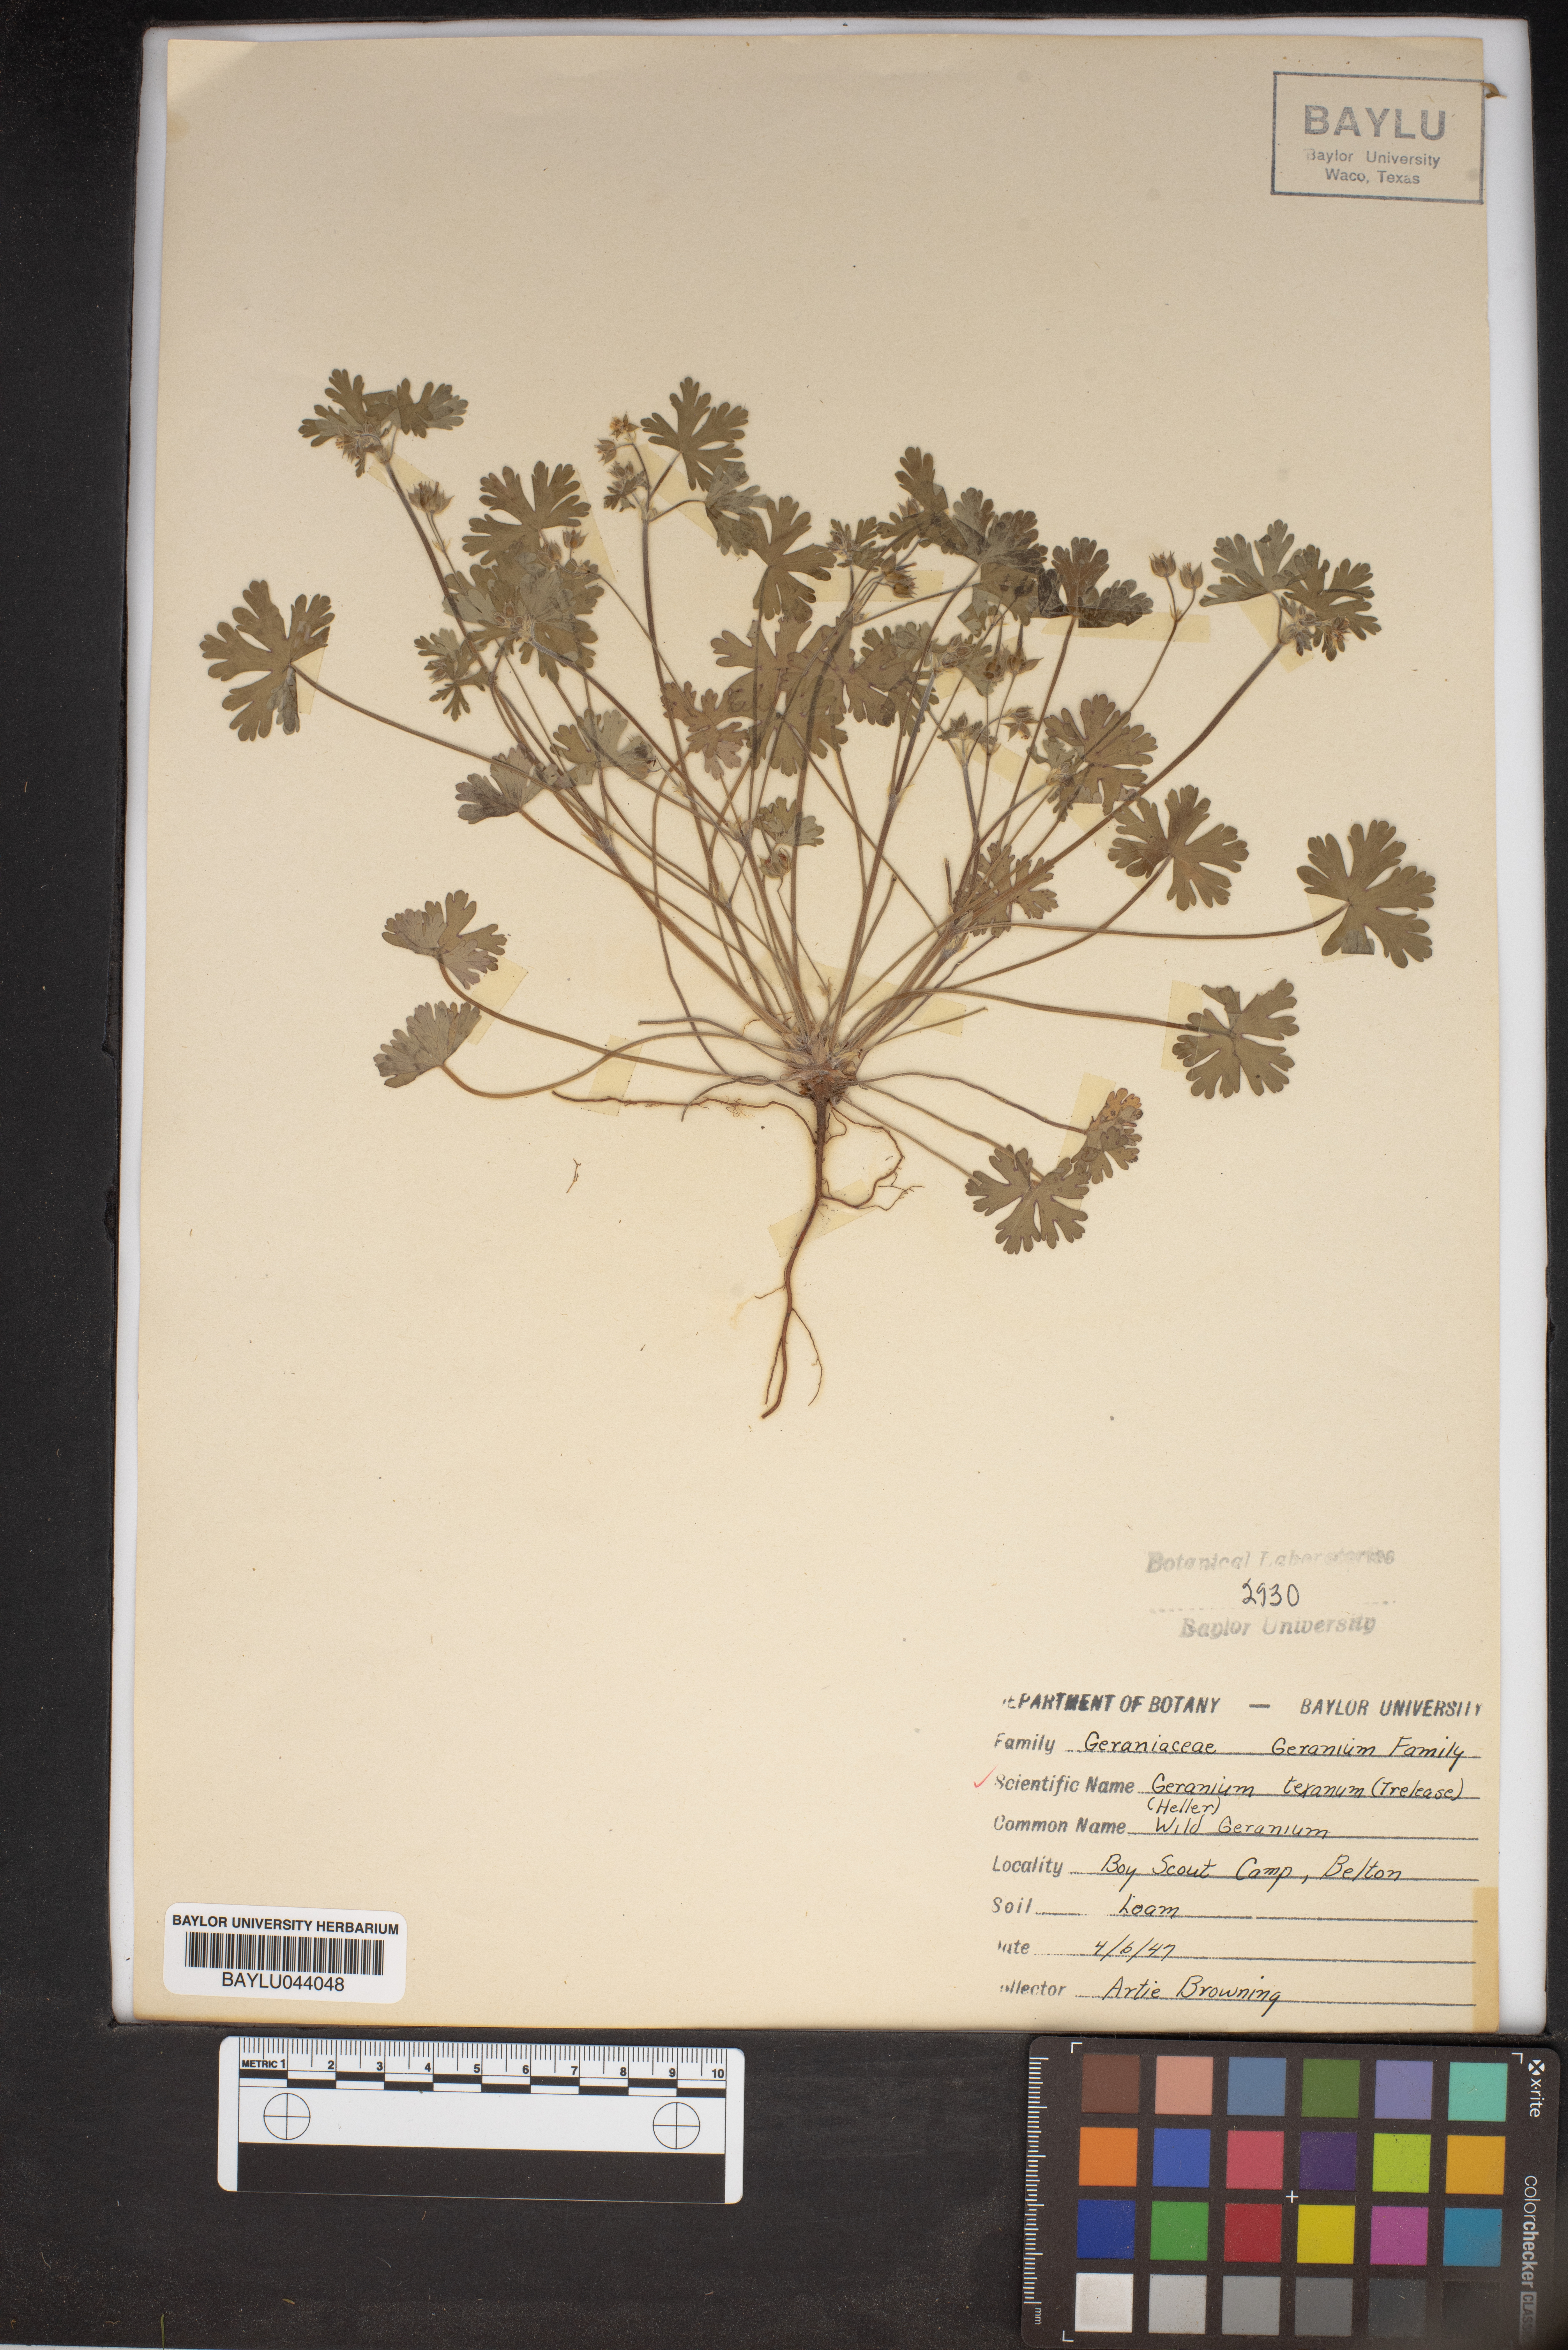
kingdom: Plantae
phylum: Tracheophyta
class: Magnoliopsida
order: Geraniales
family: Geraniaceae
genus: Geranium
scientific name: Geranium texanum
